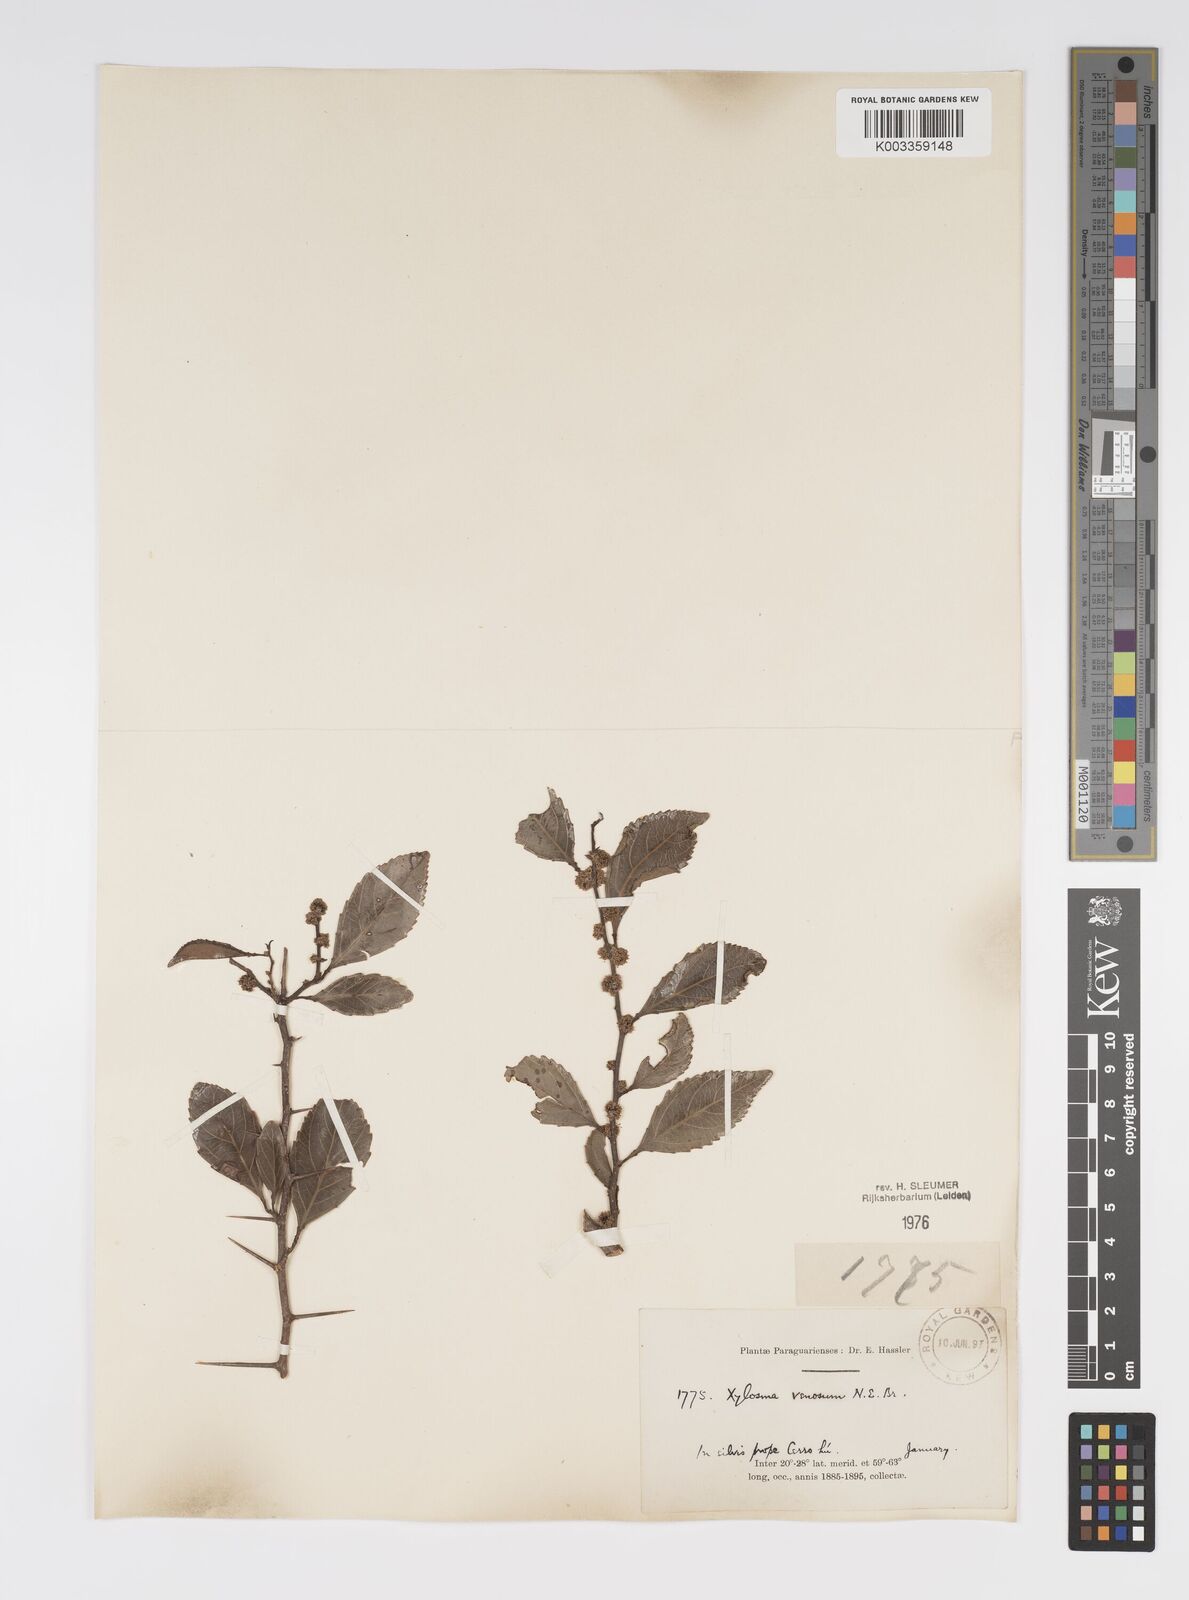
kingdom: Plantae
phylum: Tracheophyta
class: Magnoliopsida
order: Malpighiales
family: Salicaceae
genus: Xylosma
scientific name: Xylosma venosa
